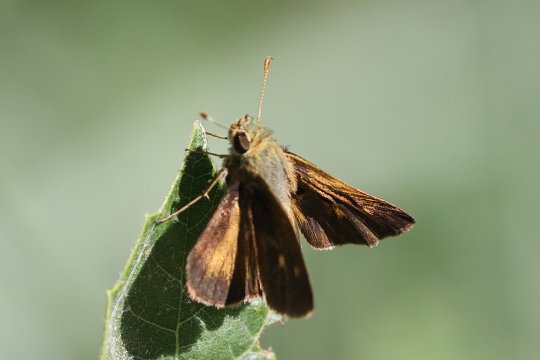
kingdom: Animalia
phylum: Arthropoda
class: Insecta
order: Lepidoptera
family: Hesperiidae
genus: Polites
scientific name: Polites egeremet
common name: Northern Broken-Dash
